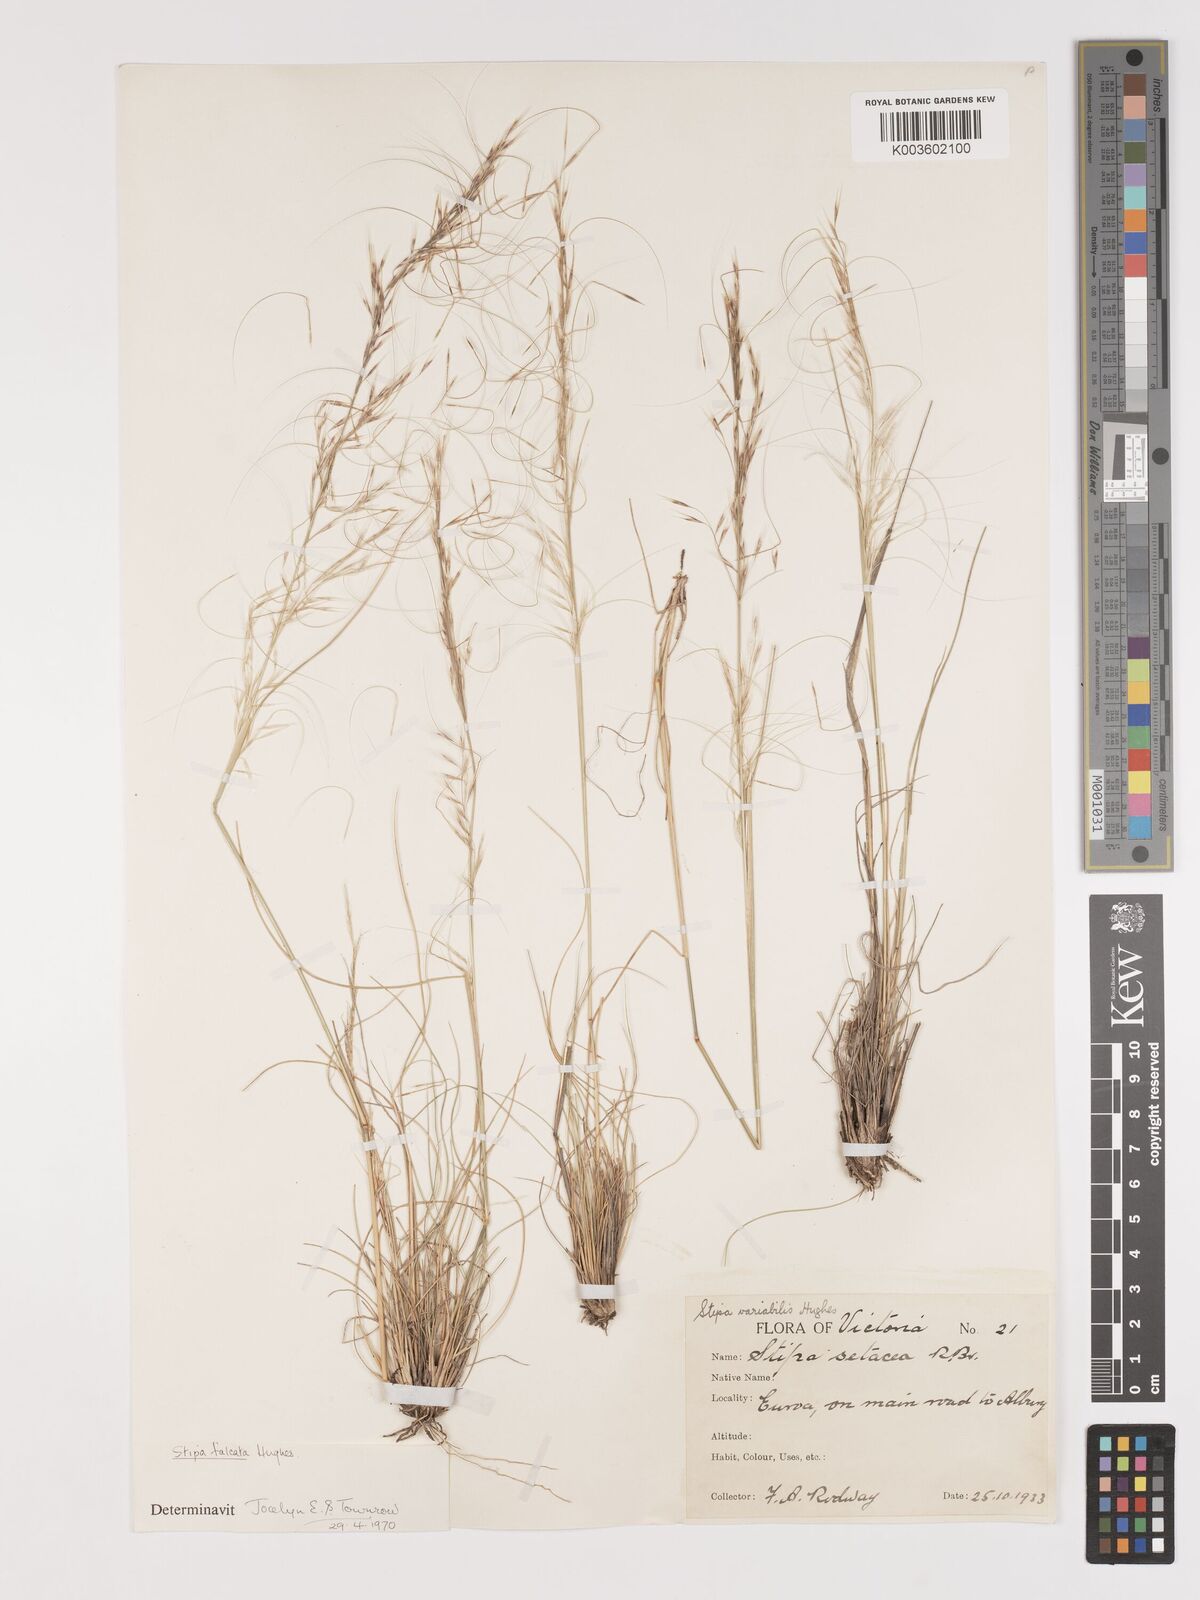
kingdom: Plantae
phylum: Tracheophyta
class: Liliopsida
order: Poales
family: Poaceae
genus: Austrostipa
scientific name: Austrostipa scabra
